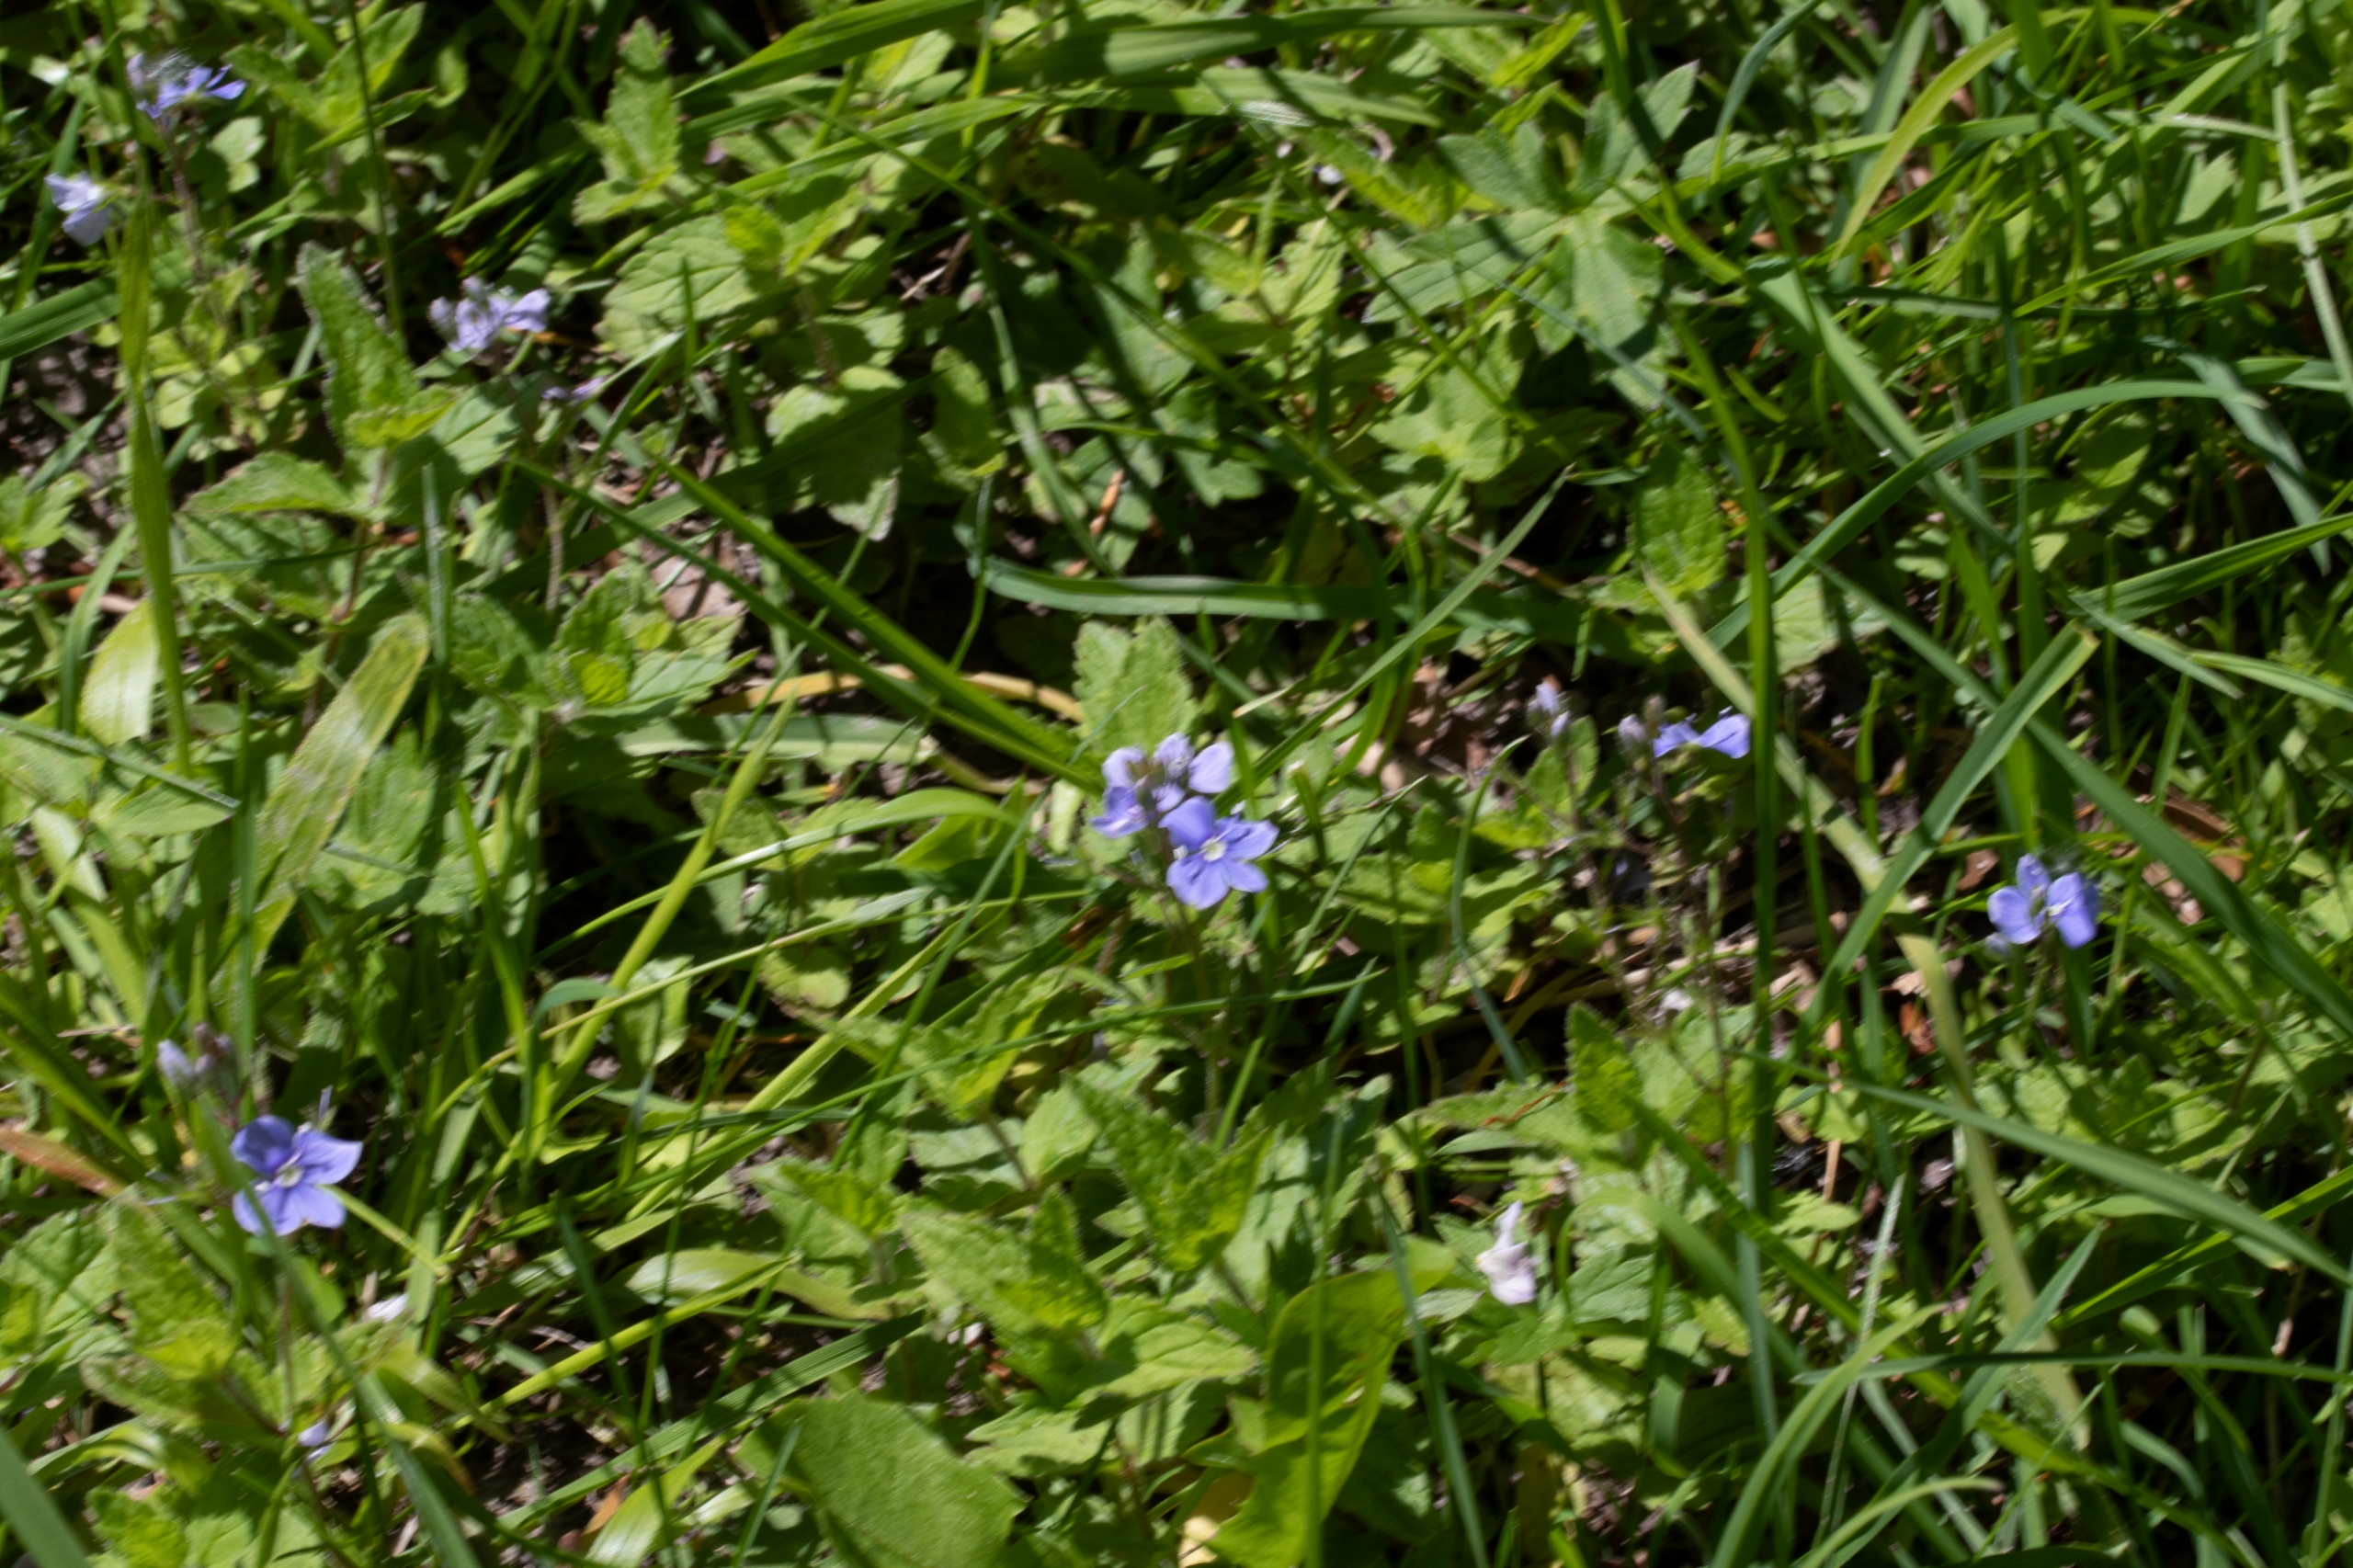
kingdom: Plantae
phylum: Tracheophyta
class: Magnoliopsida
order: Lamiales
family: Plantaginaceae
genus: Veronica
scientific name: Veronica chamaedrys
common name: Tveskægget ærenpris
